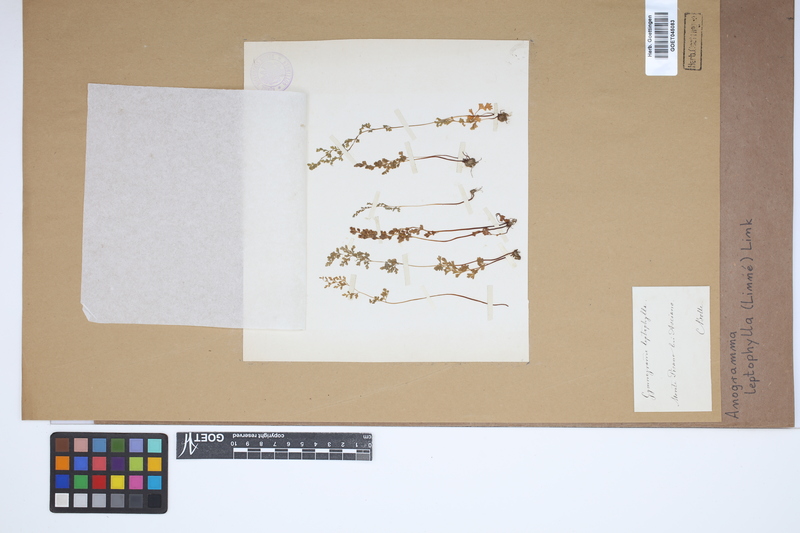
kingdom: Plantae
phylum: Tracheophyta
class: Polypodiopsida
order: Polypodiales
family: Pteridaceae
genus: Anogramma
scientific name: Anogramma leptophylla
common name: Jersey fern
